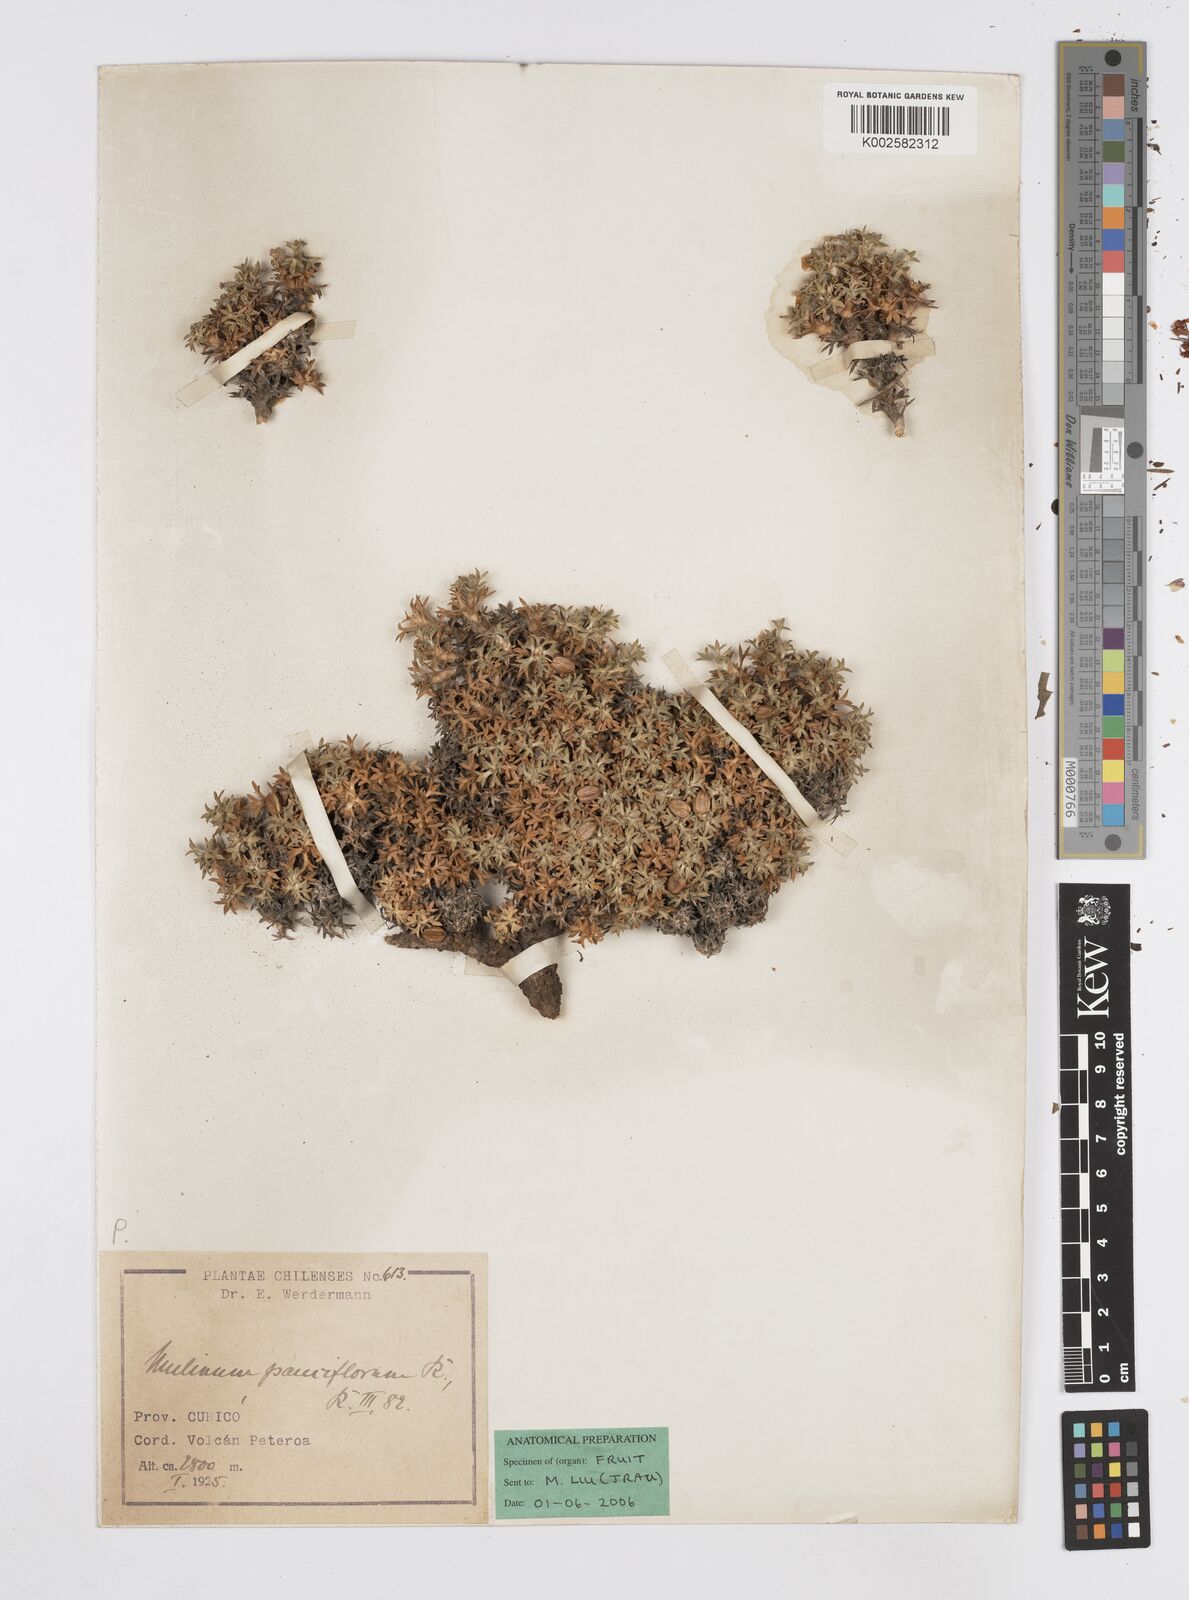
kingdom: Plantae
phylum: Tracheophyta
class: Magnoliopsida
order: Apiales
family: Apiaceae
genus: Azorella
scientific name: Azorella albovaginata
